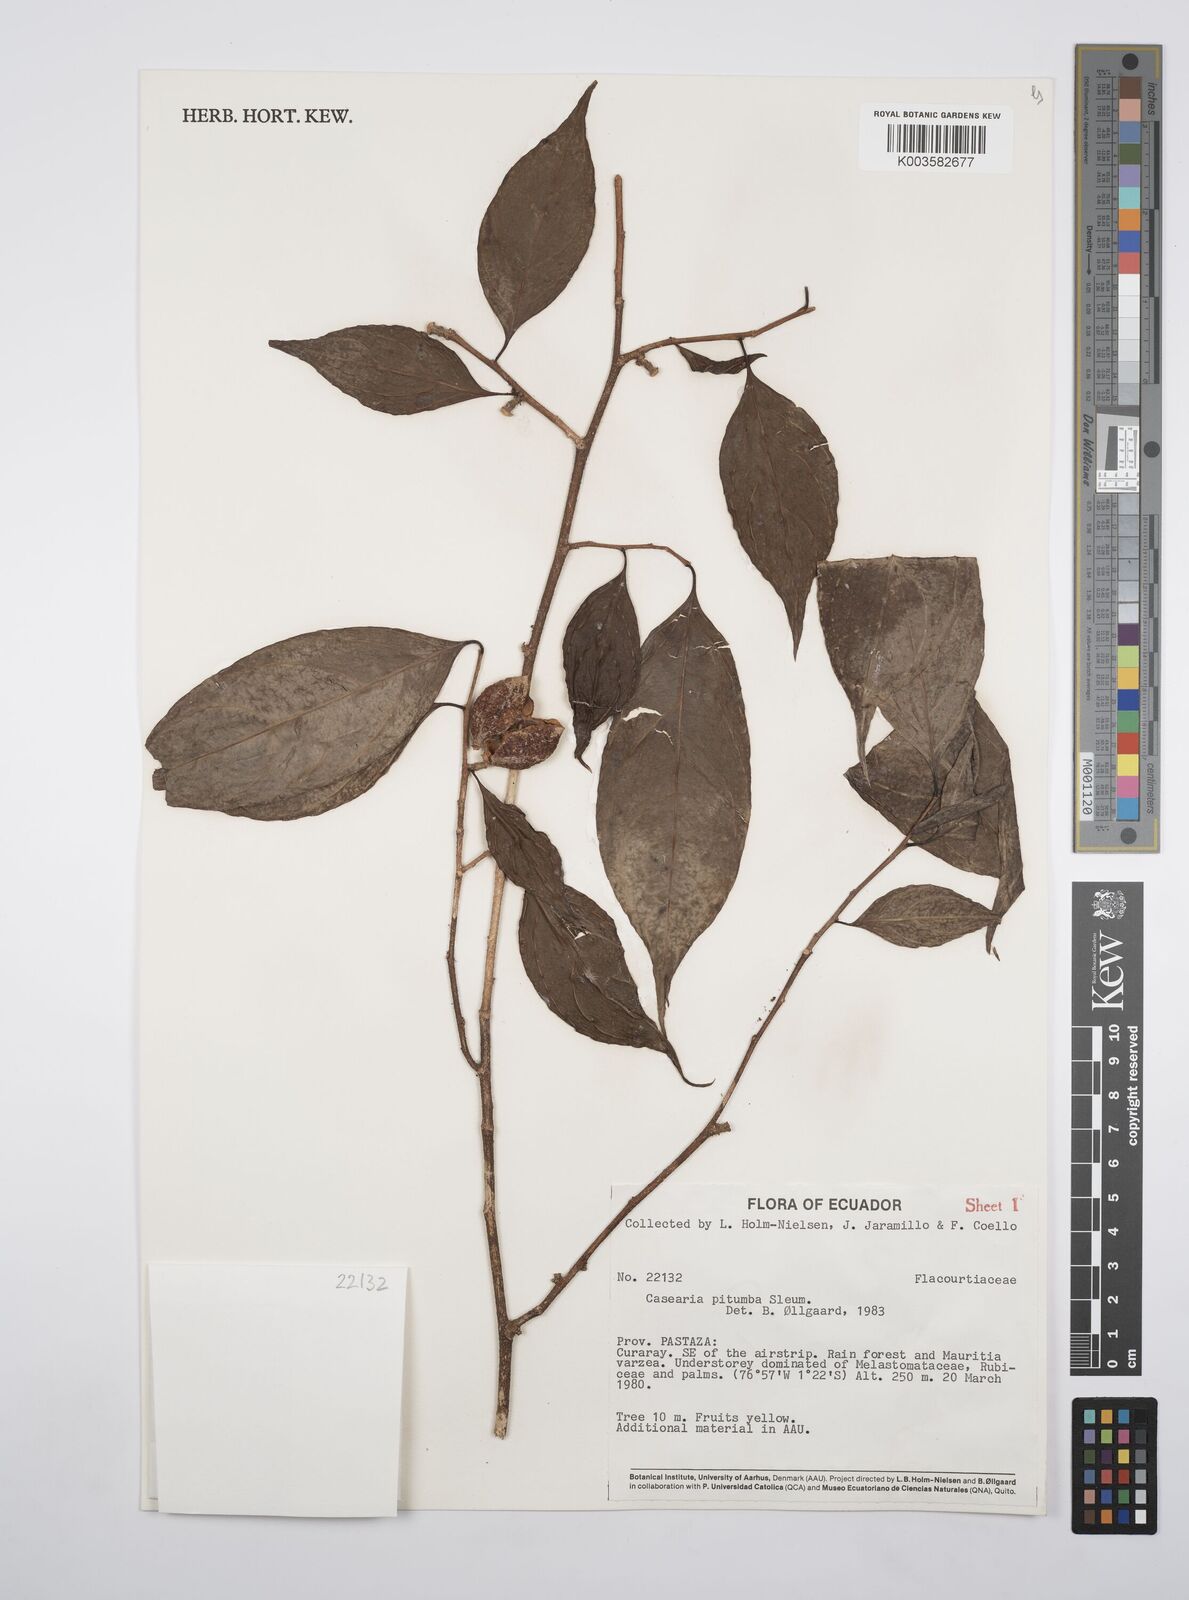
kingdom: Plantae
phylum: Tracheophyta
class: Magnoliopsida
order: Malpighiales
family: Salicaceae
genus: Casearia
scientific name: Casearia pitumba
